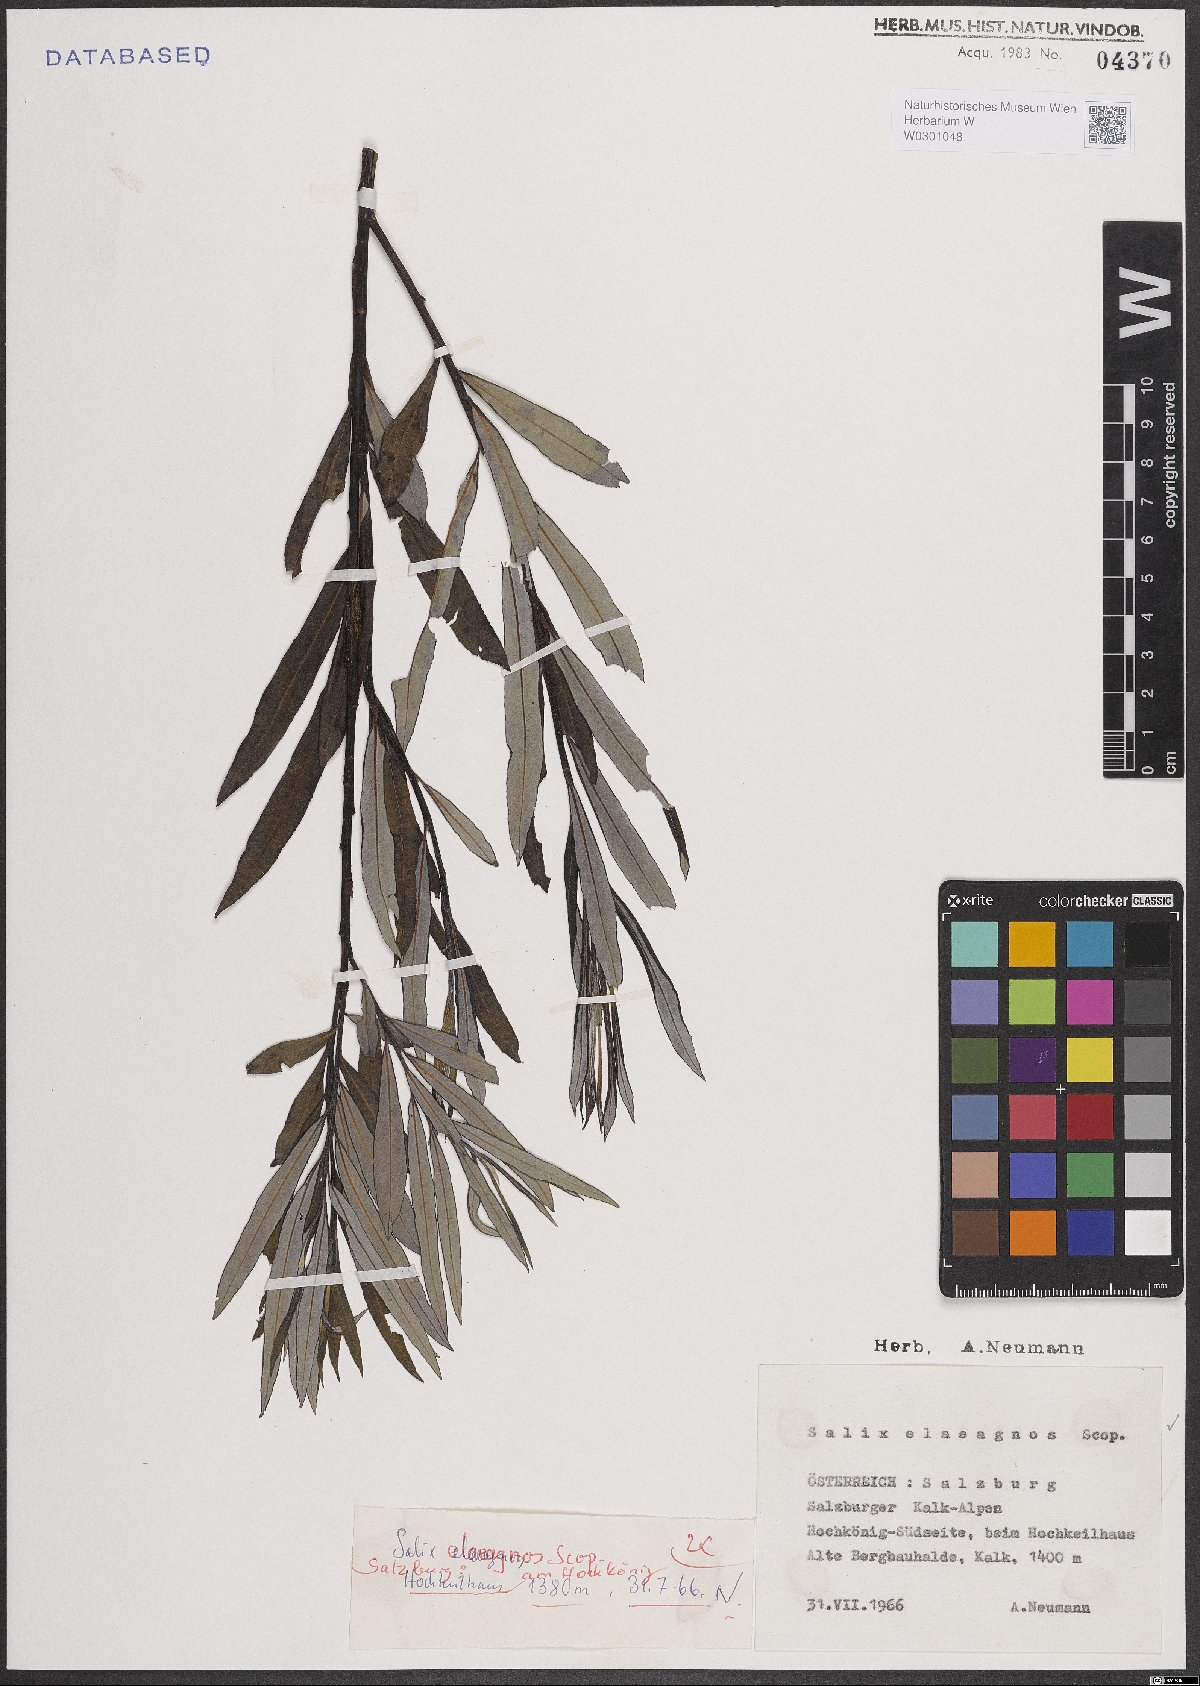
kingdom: Plantae
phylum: Tracheophyta
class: Magnoliopsida
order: Malpighiales
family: Salicaceae
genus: Salix
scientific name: Salix eleagnos
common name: Elaeagnus willow
